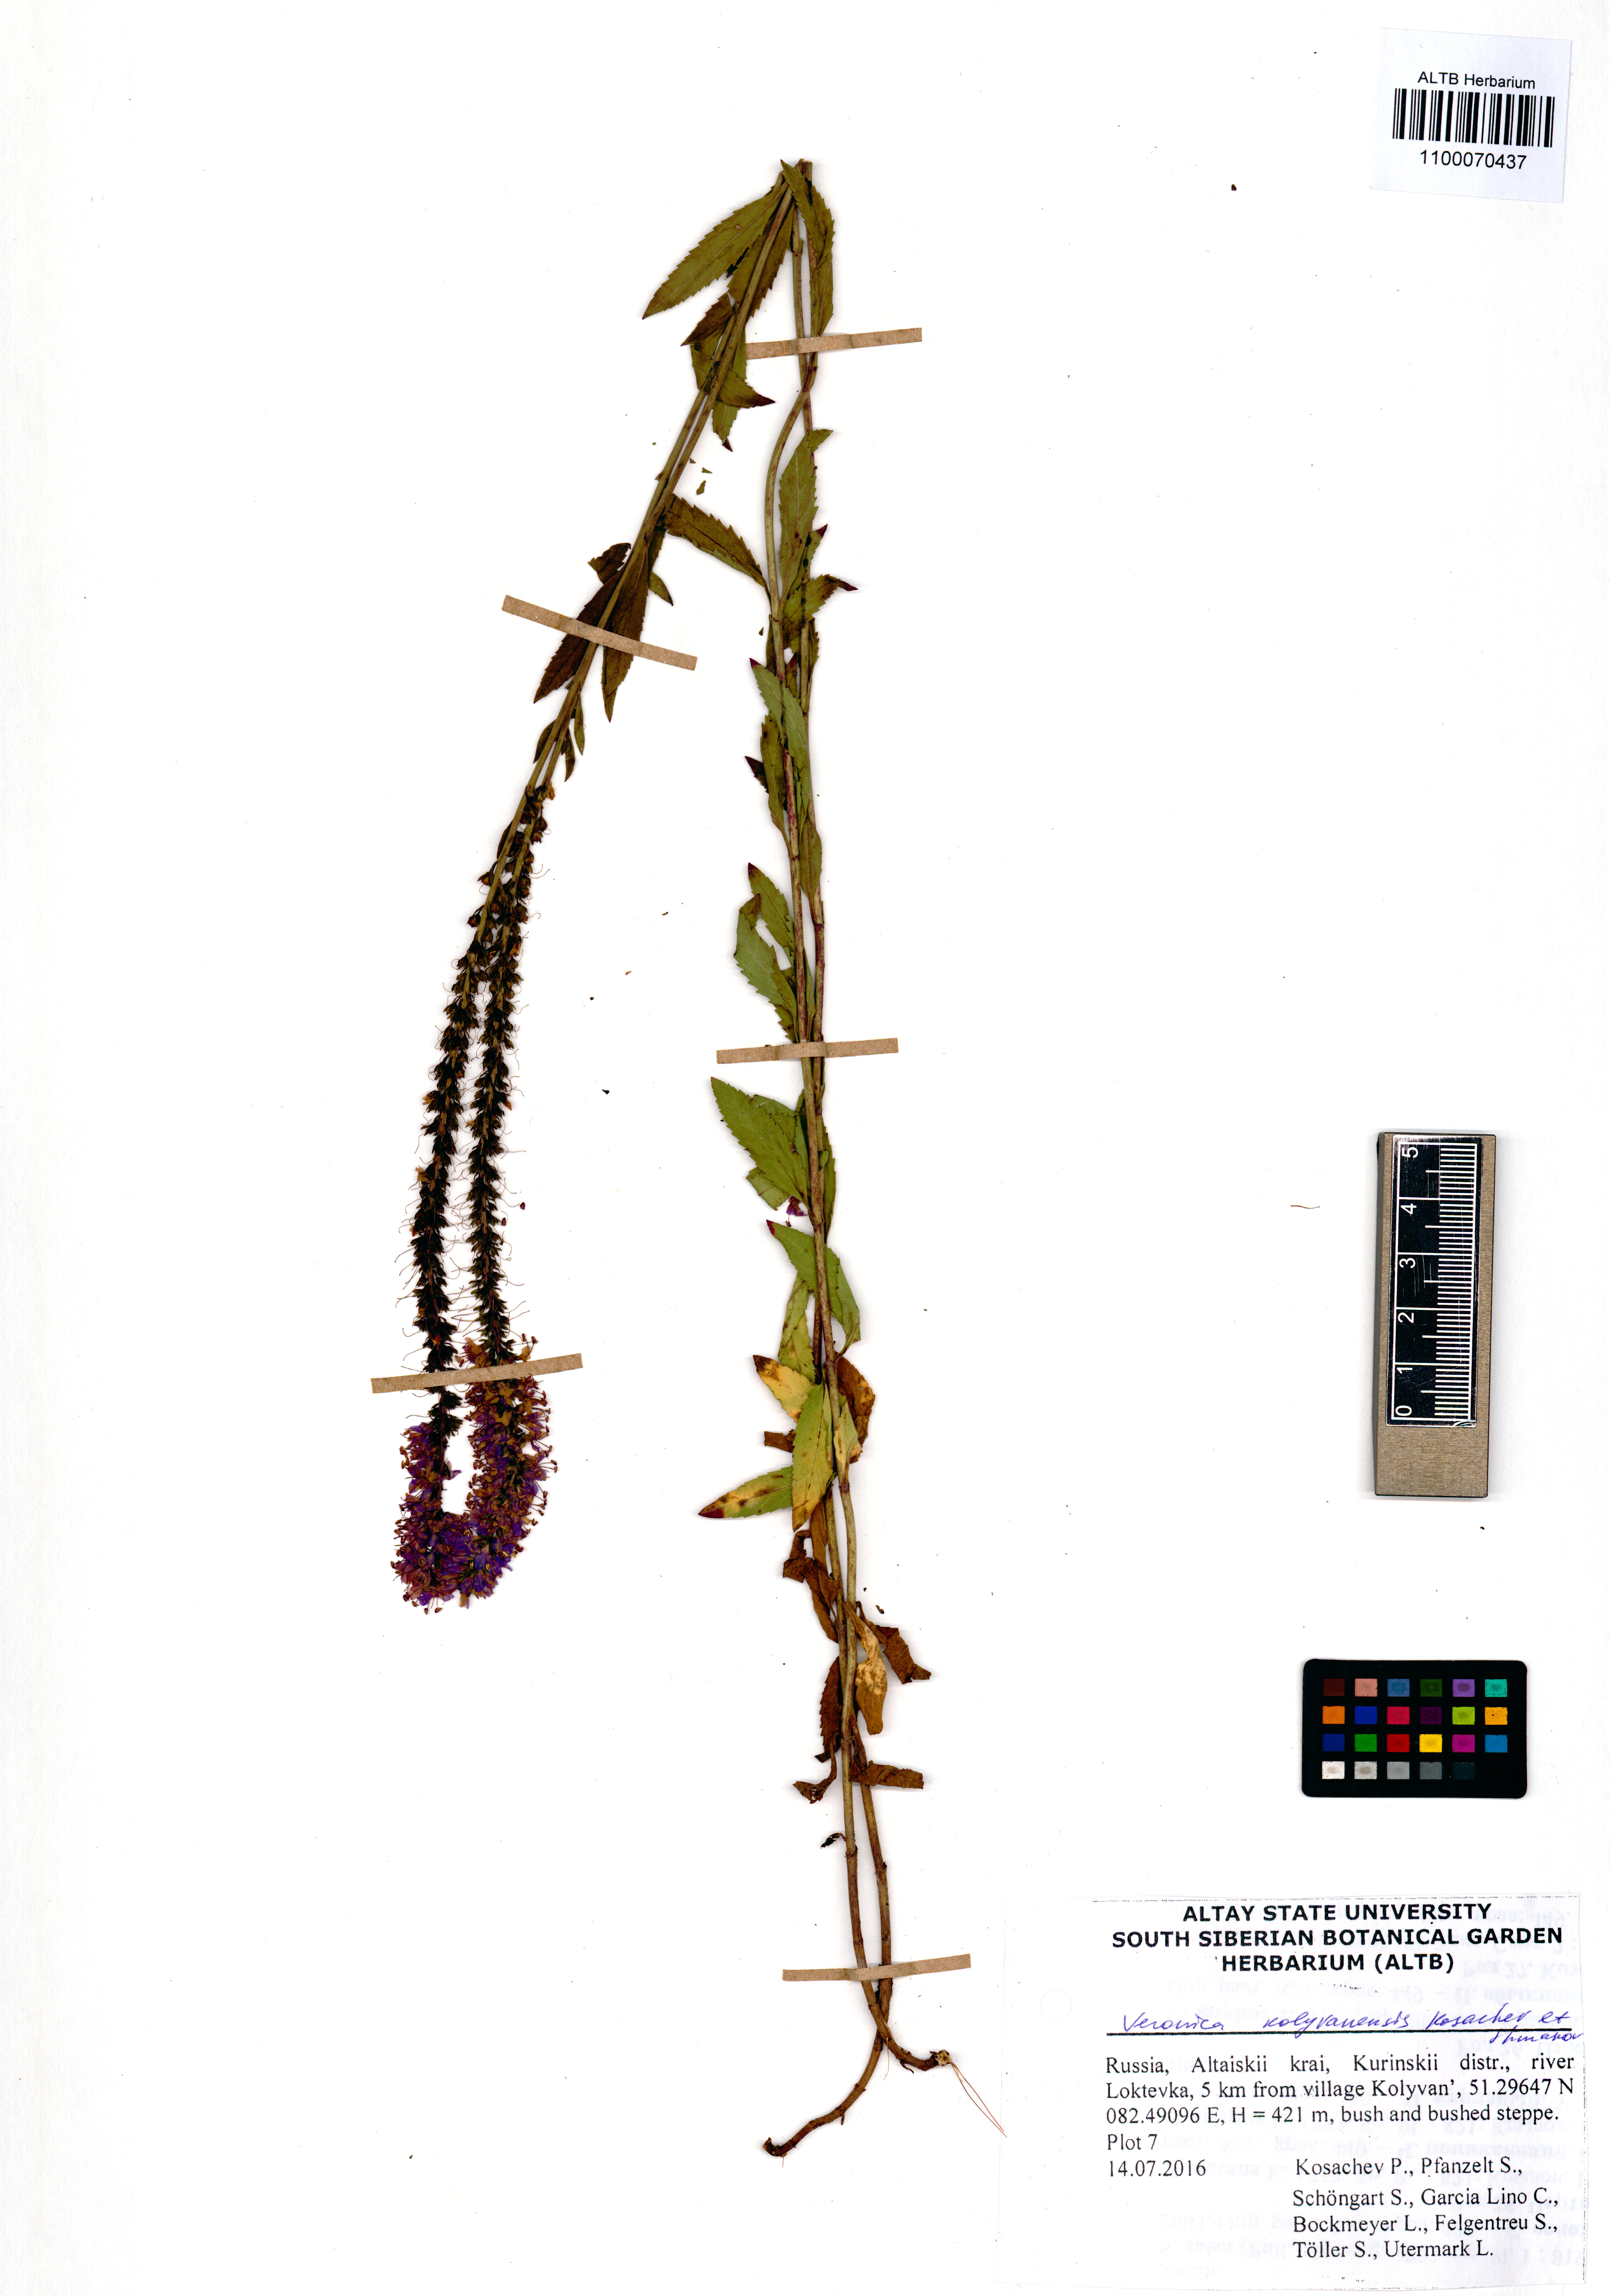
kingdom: Plantae
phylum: Tracheophyta
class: Magnoliopsida
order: Lamiales
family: Plantaginaceae
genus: Veronica
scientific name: Veronica kolyvanensis
